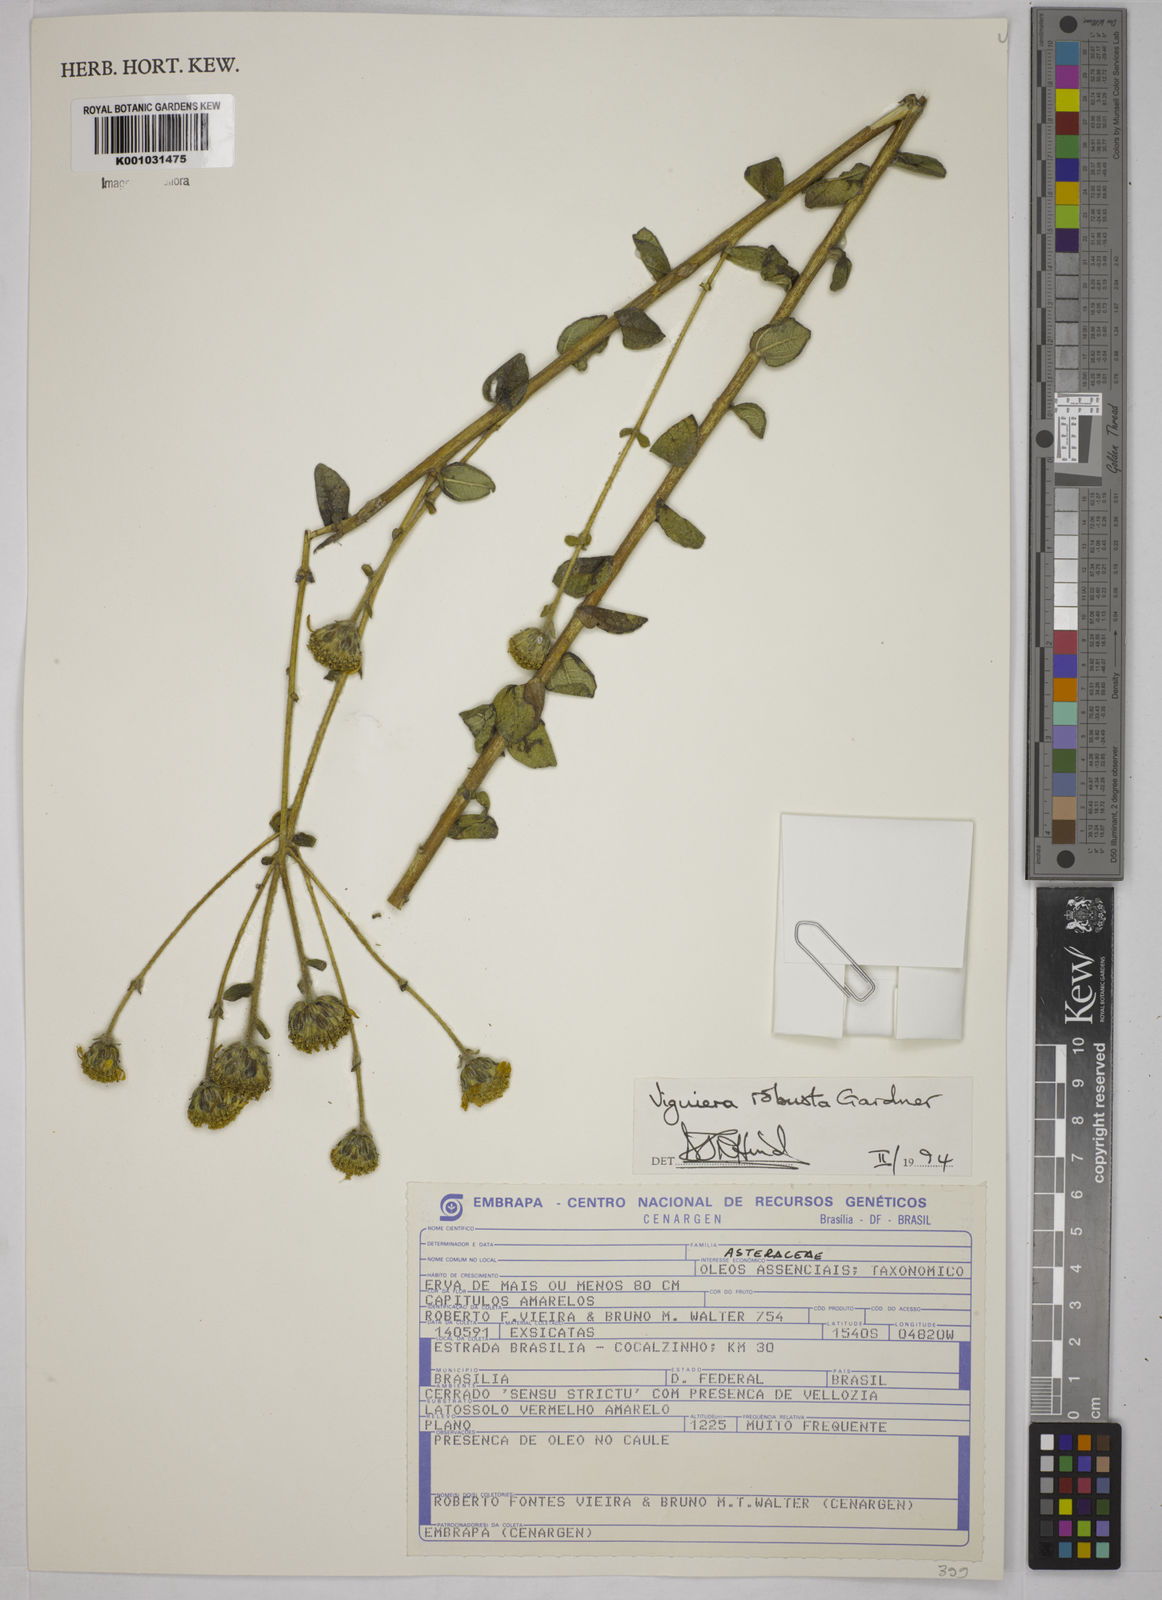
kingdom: Plantae
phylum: Tracheophyta
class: Magnoliopsida
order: Asterales
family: Asteraceae
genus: Aldama
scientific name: Aldama robusta
